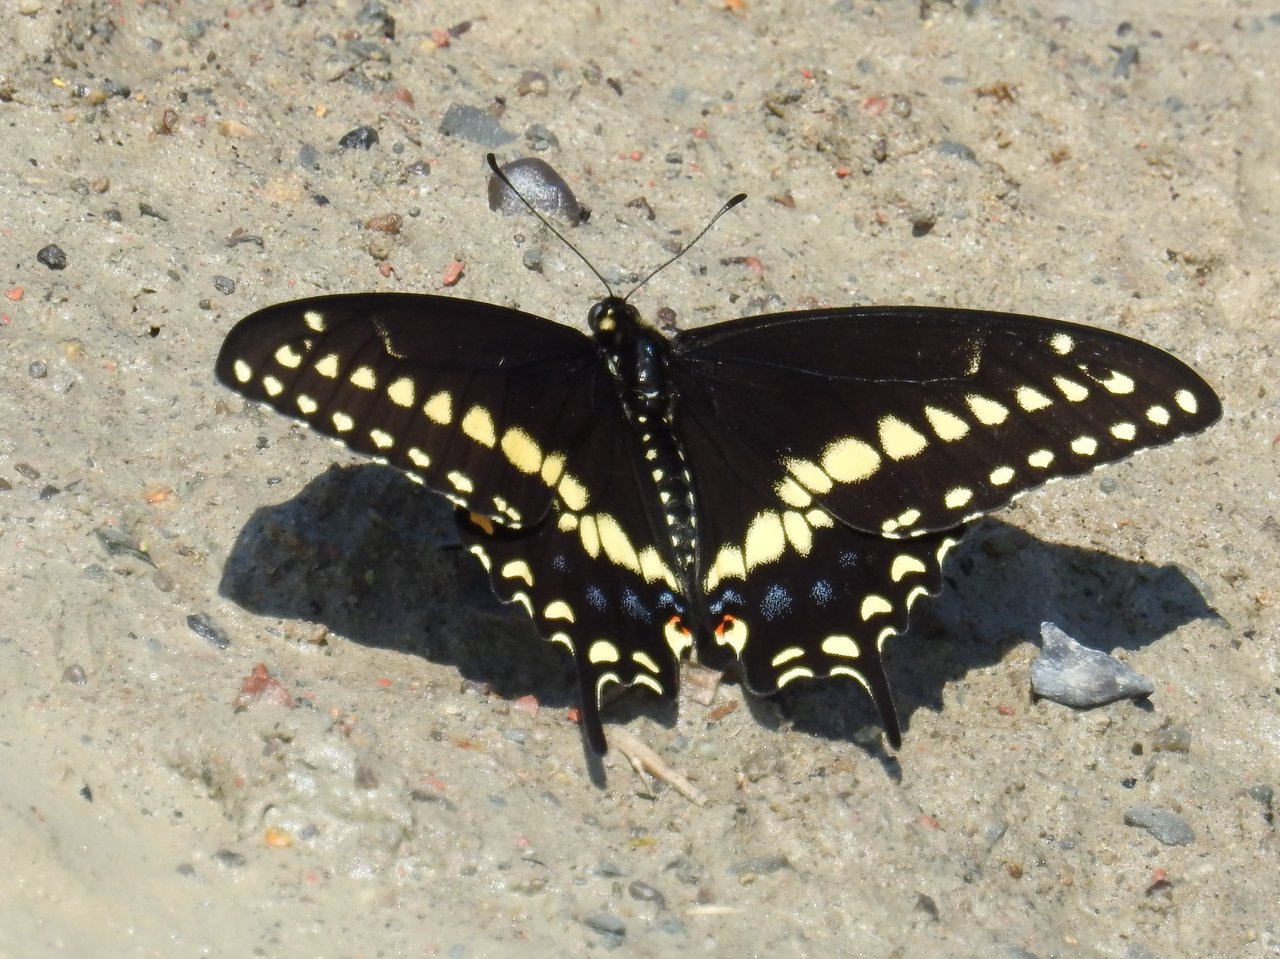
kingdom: Animalia
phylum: Arthropoda
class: Insecta
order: Lepidoptera
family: Papilionidae
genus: Papilio
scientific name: Papilio polyxenes
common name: Black Swallowtail
